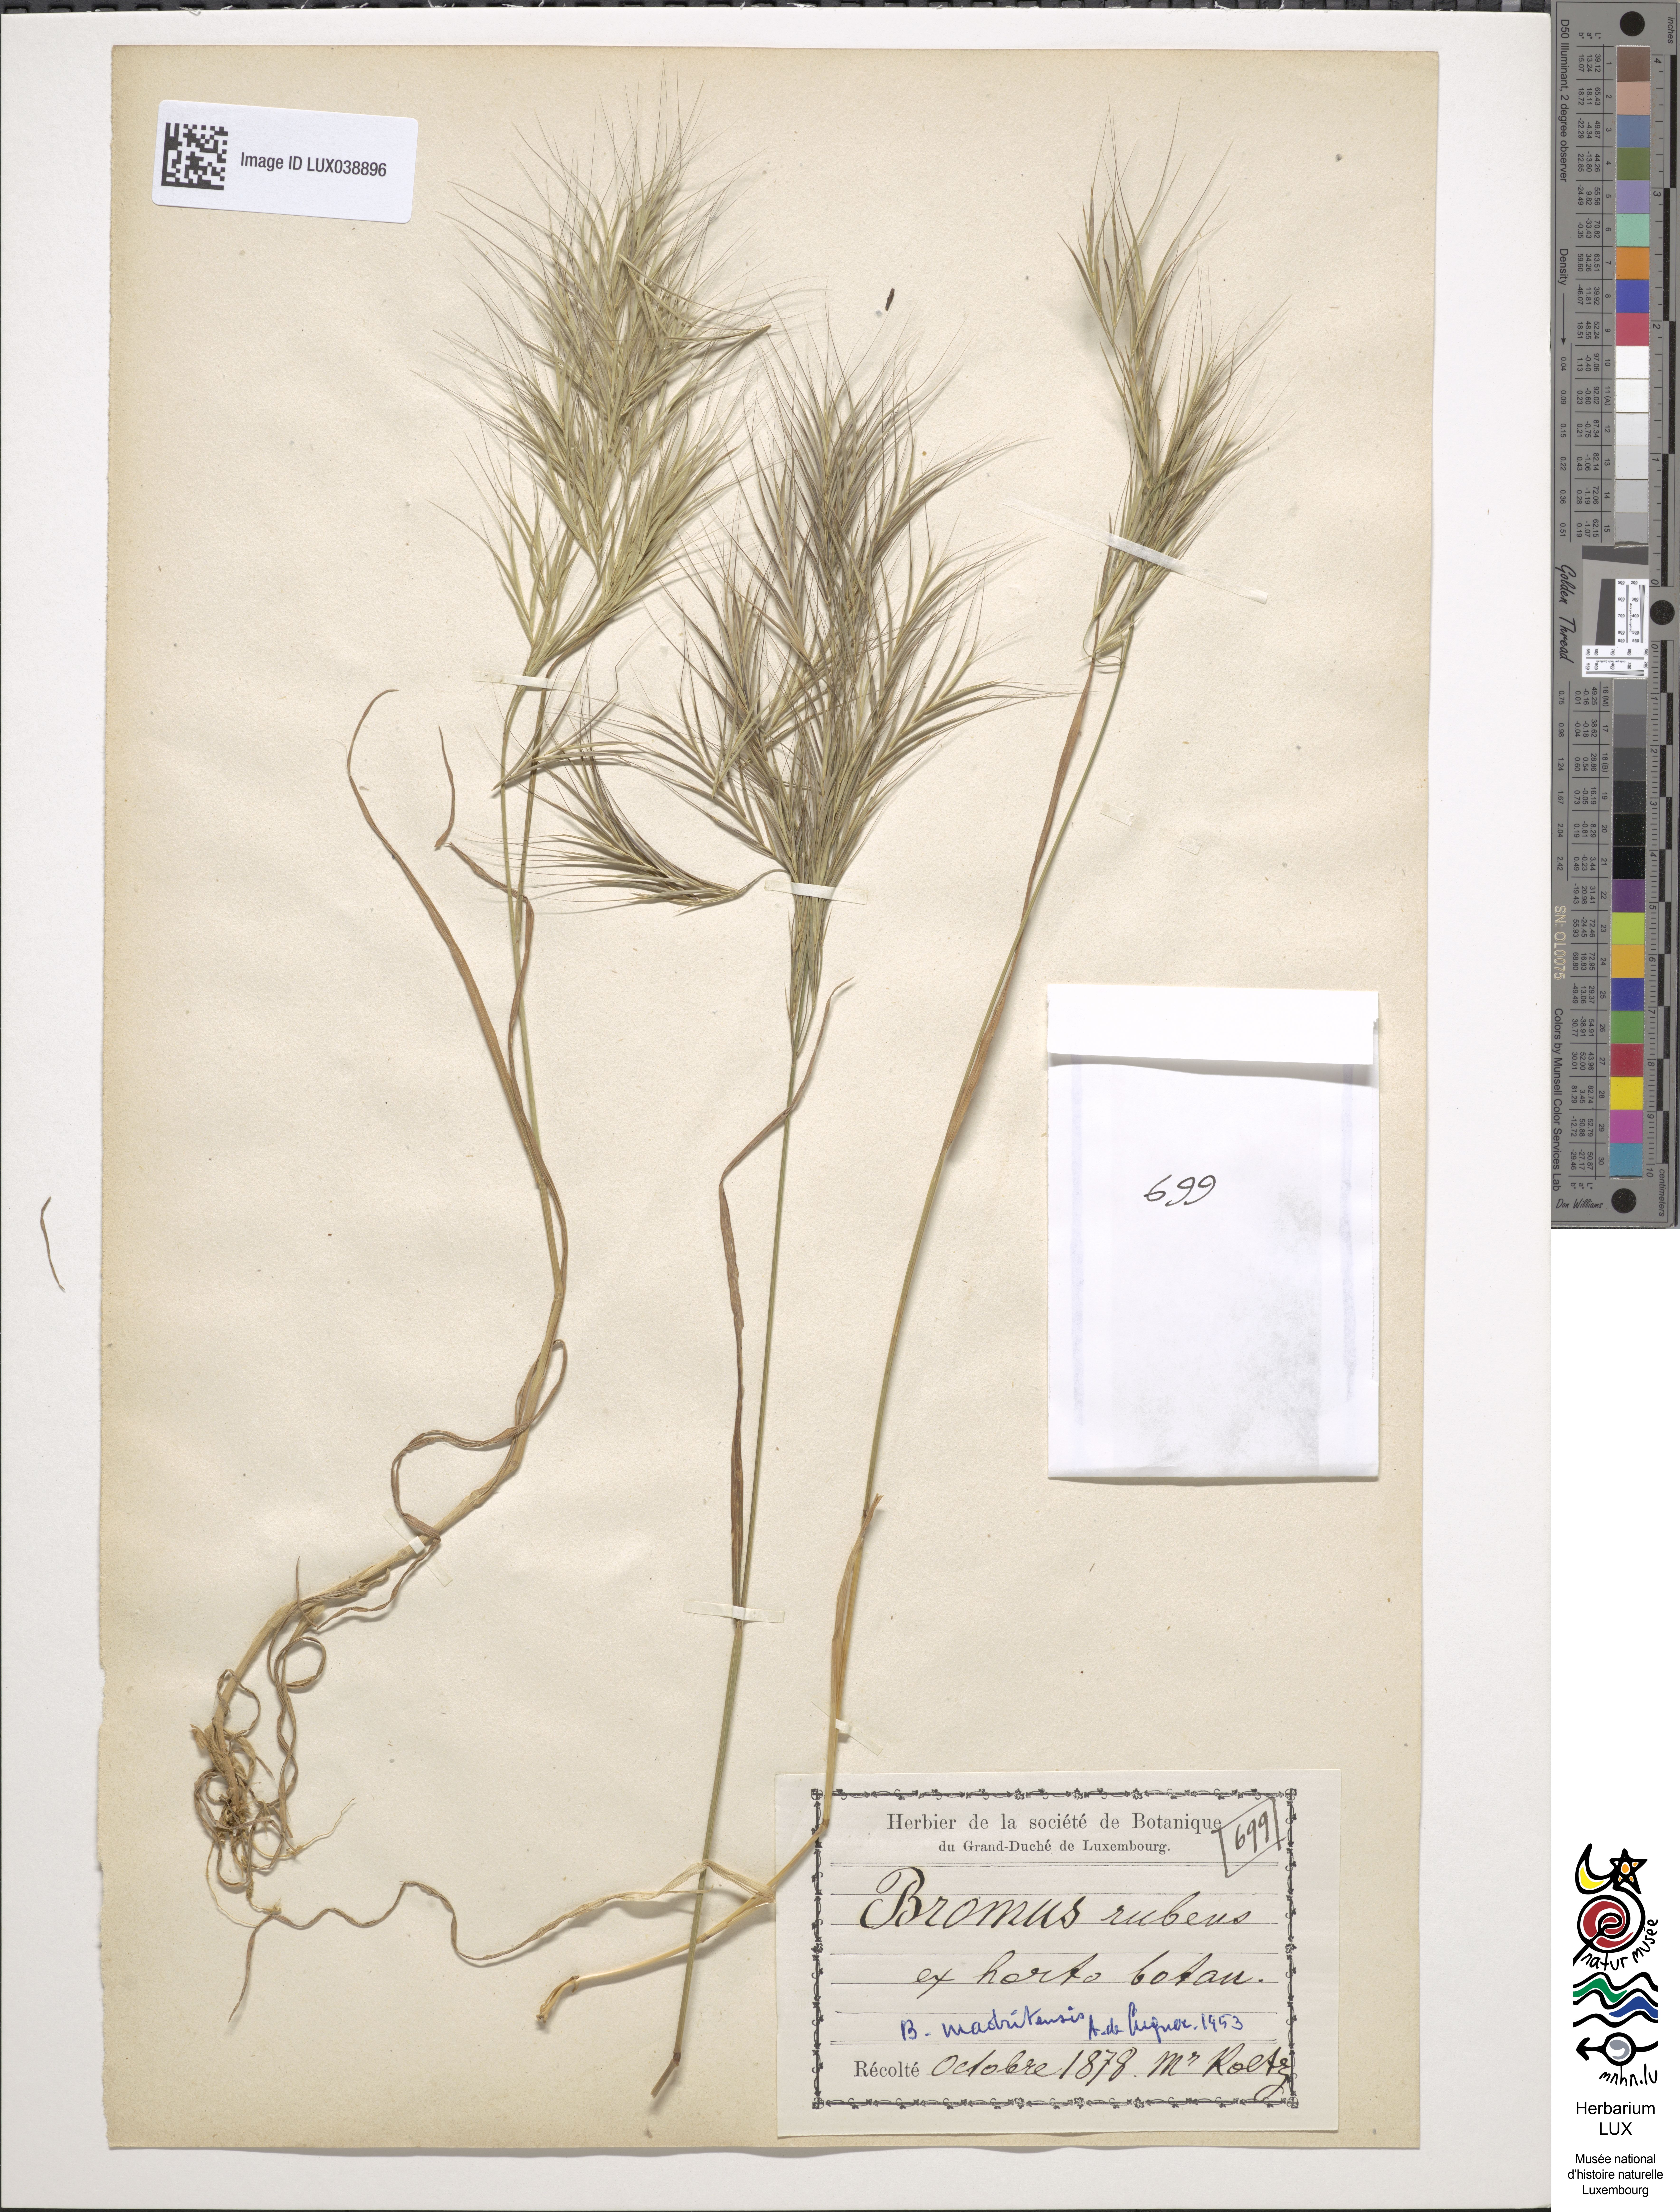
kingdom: Plantae
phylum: Tracheophyta
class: Liliopsida
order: Poales
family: Poaceae
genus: Bromus
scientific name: Bromus madritensis
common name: Compact brome
